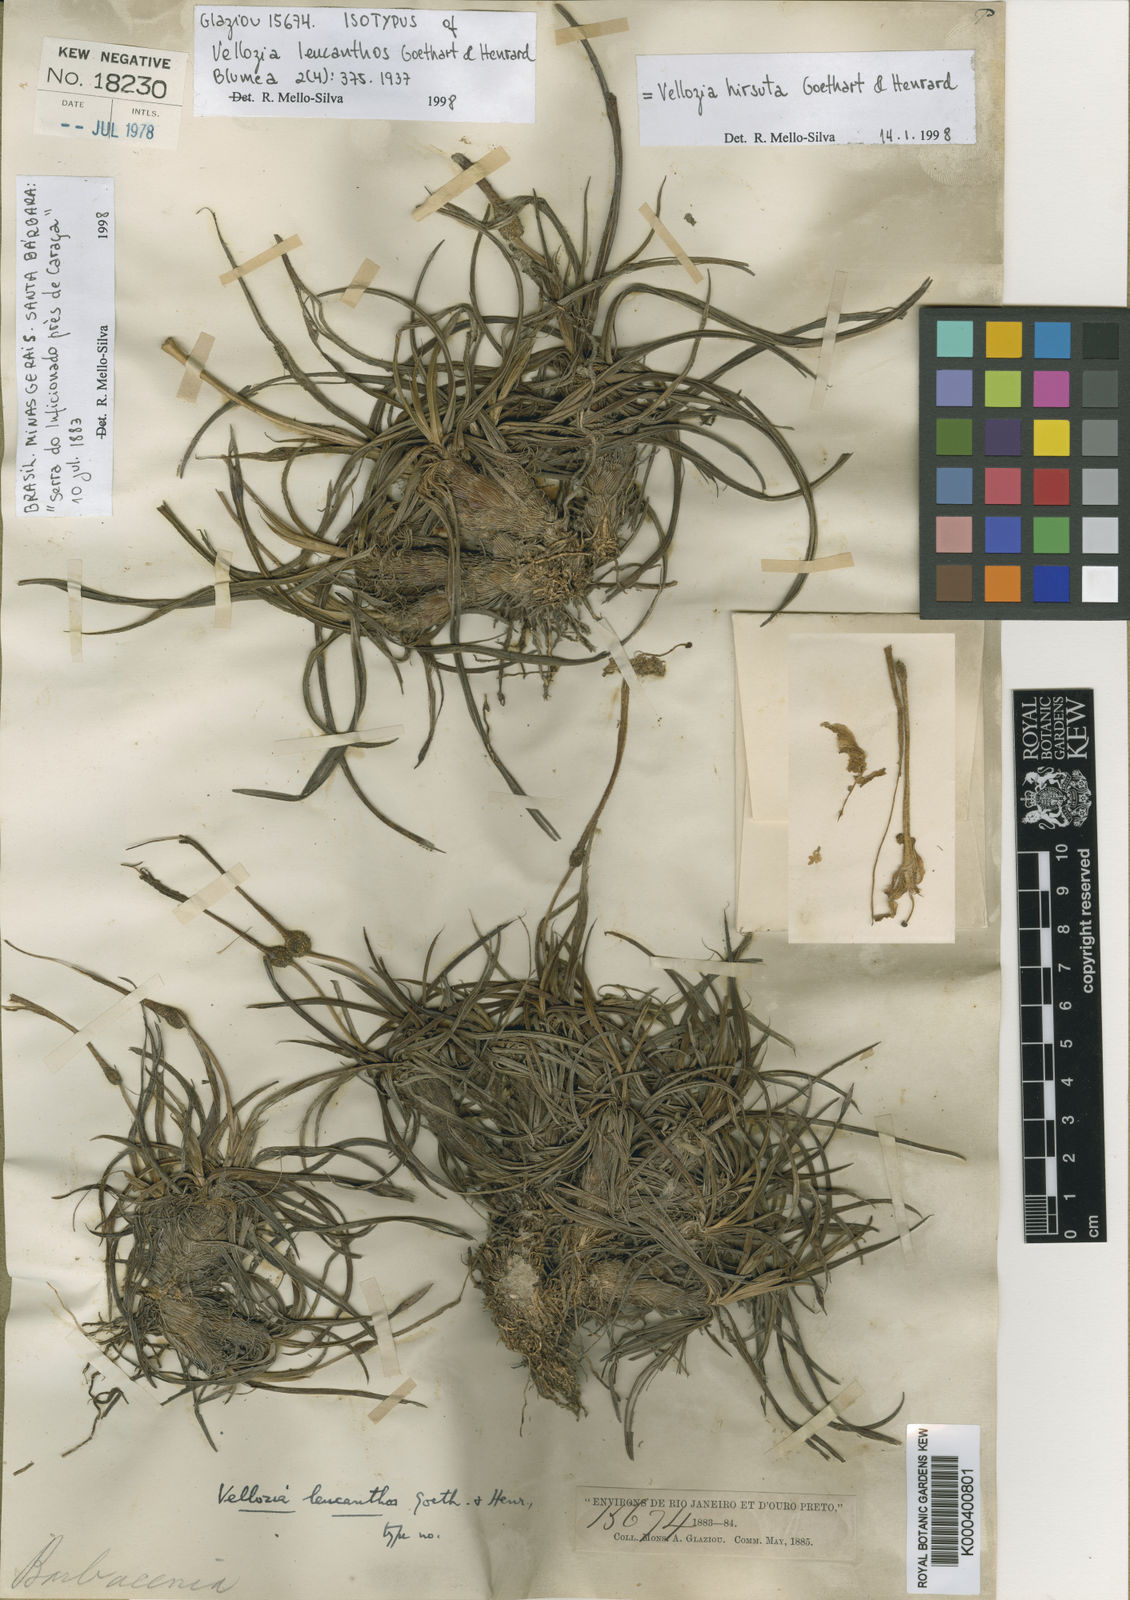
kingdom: Plantae
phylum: Tracheophyta
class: Liliopsida
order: Pandanales
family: Velloziaceae
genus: Vellozia
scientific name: Vellozia hirsuta
